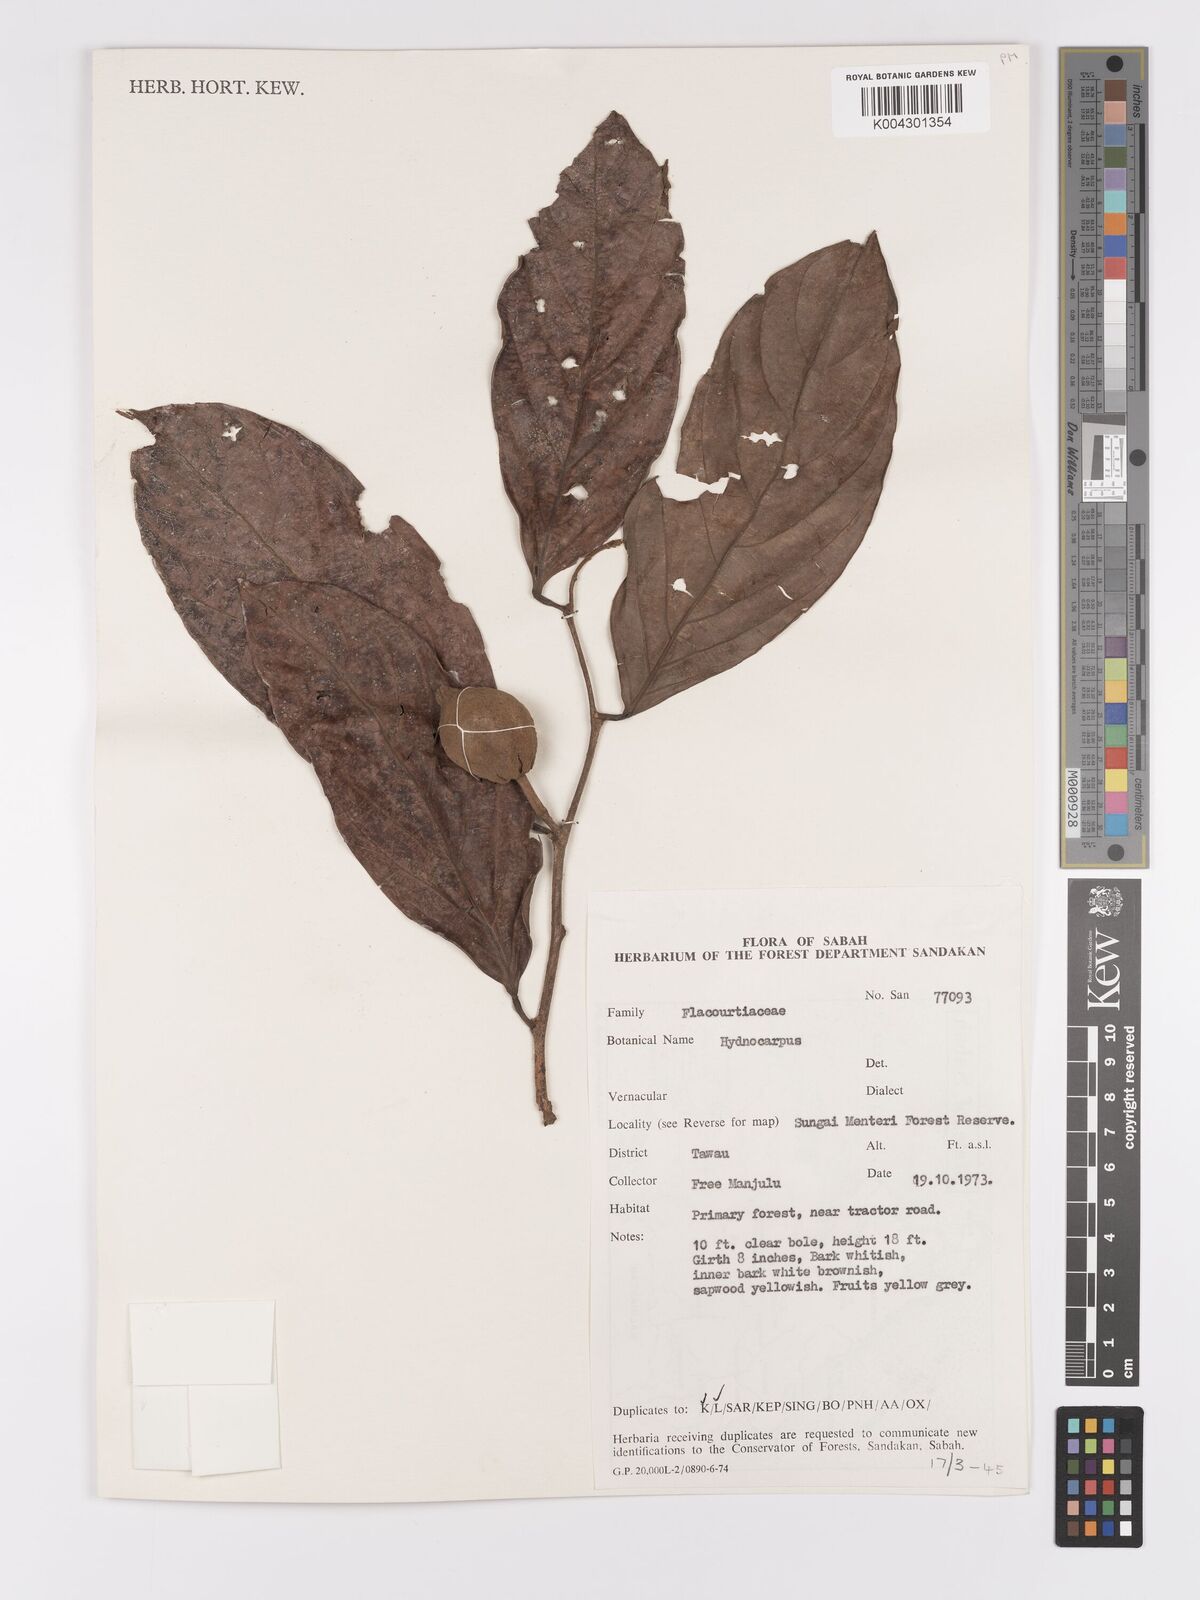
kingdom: Plantae
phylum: Tracheophyta
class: Magnoliopsida
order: Malpighiales
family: Achariaceae
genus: Hydnocarpus
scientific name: Hydnocarpus
